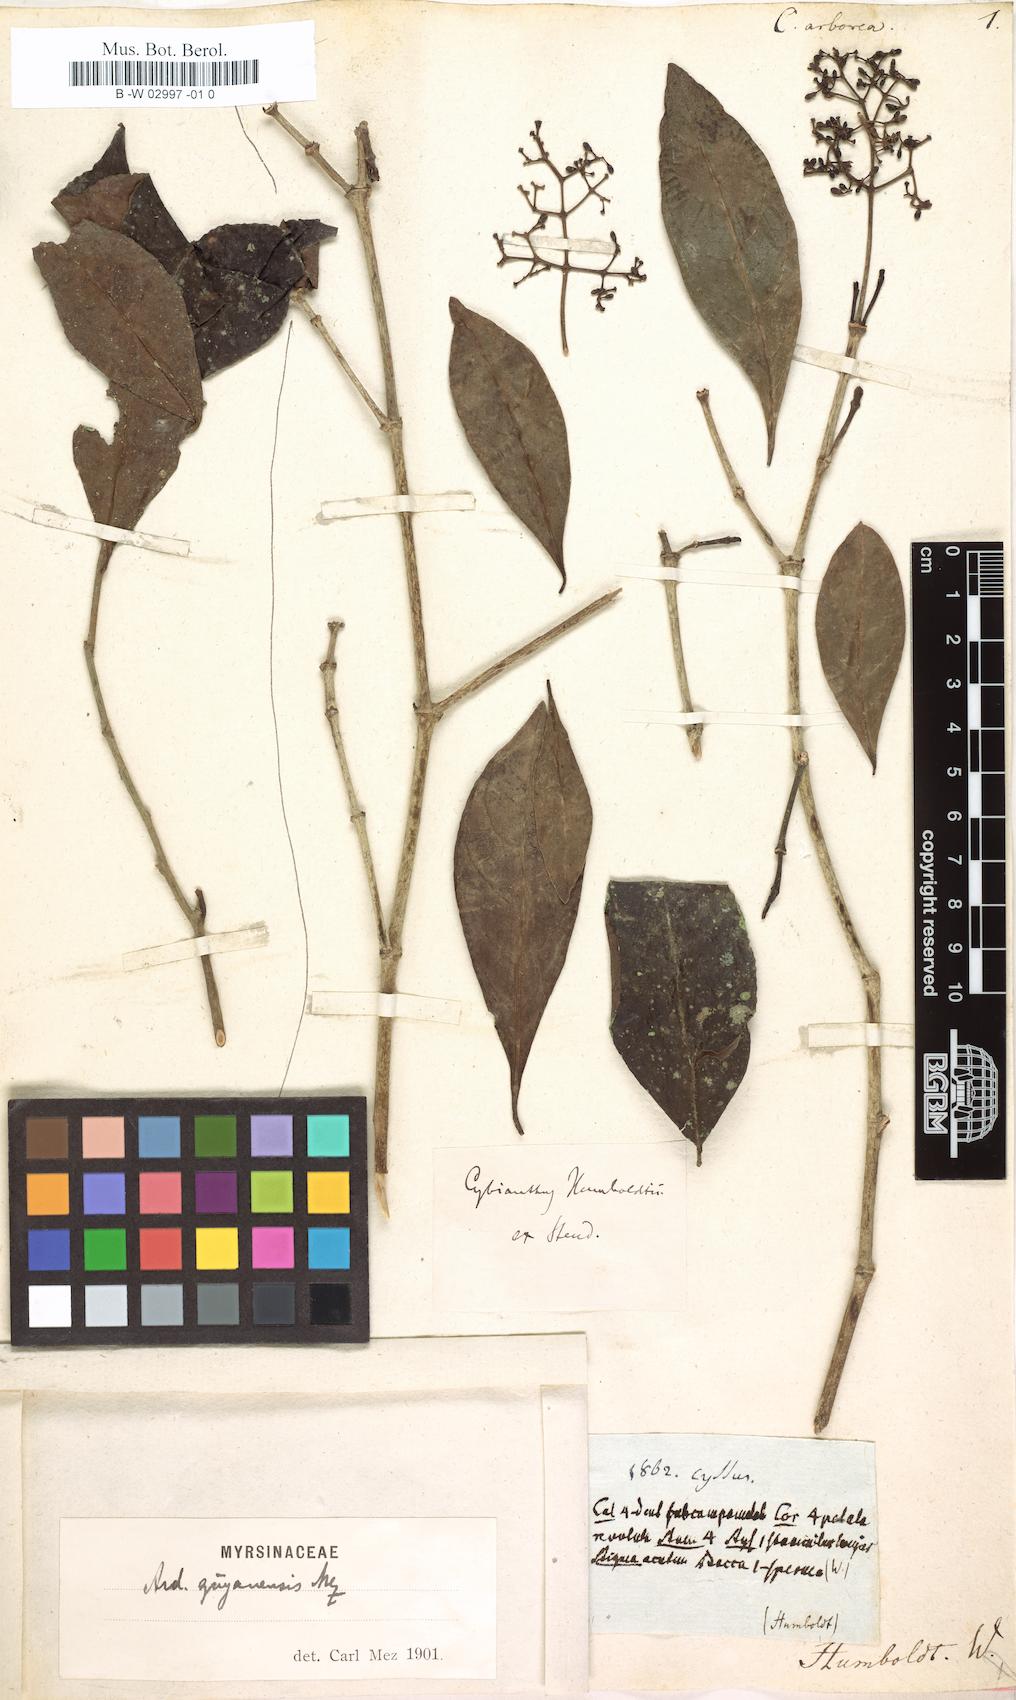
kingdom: Plantae
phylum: Tracheophyta
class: Magnoliopsida
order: Vitales
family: Vitaceae
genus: Cissus
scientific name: Cissus
